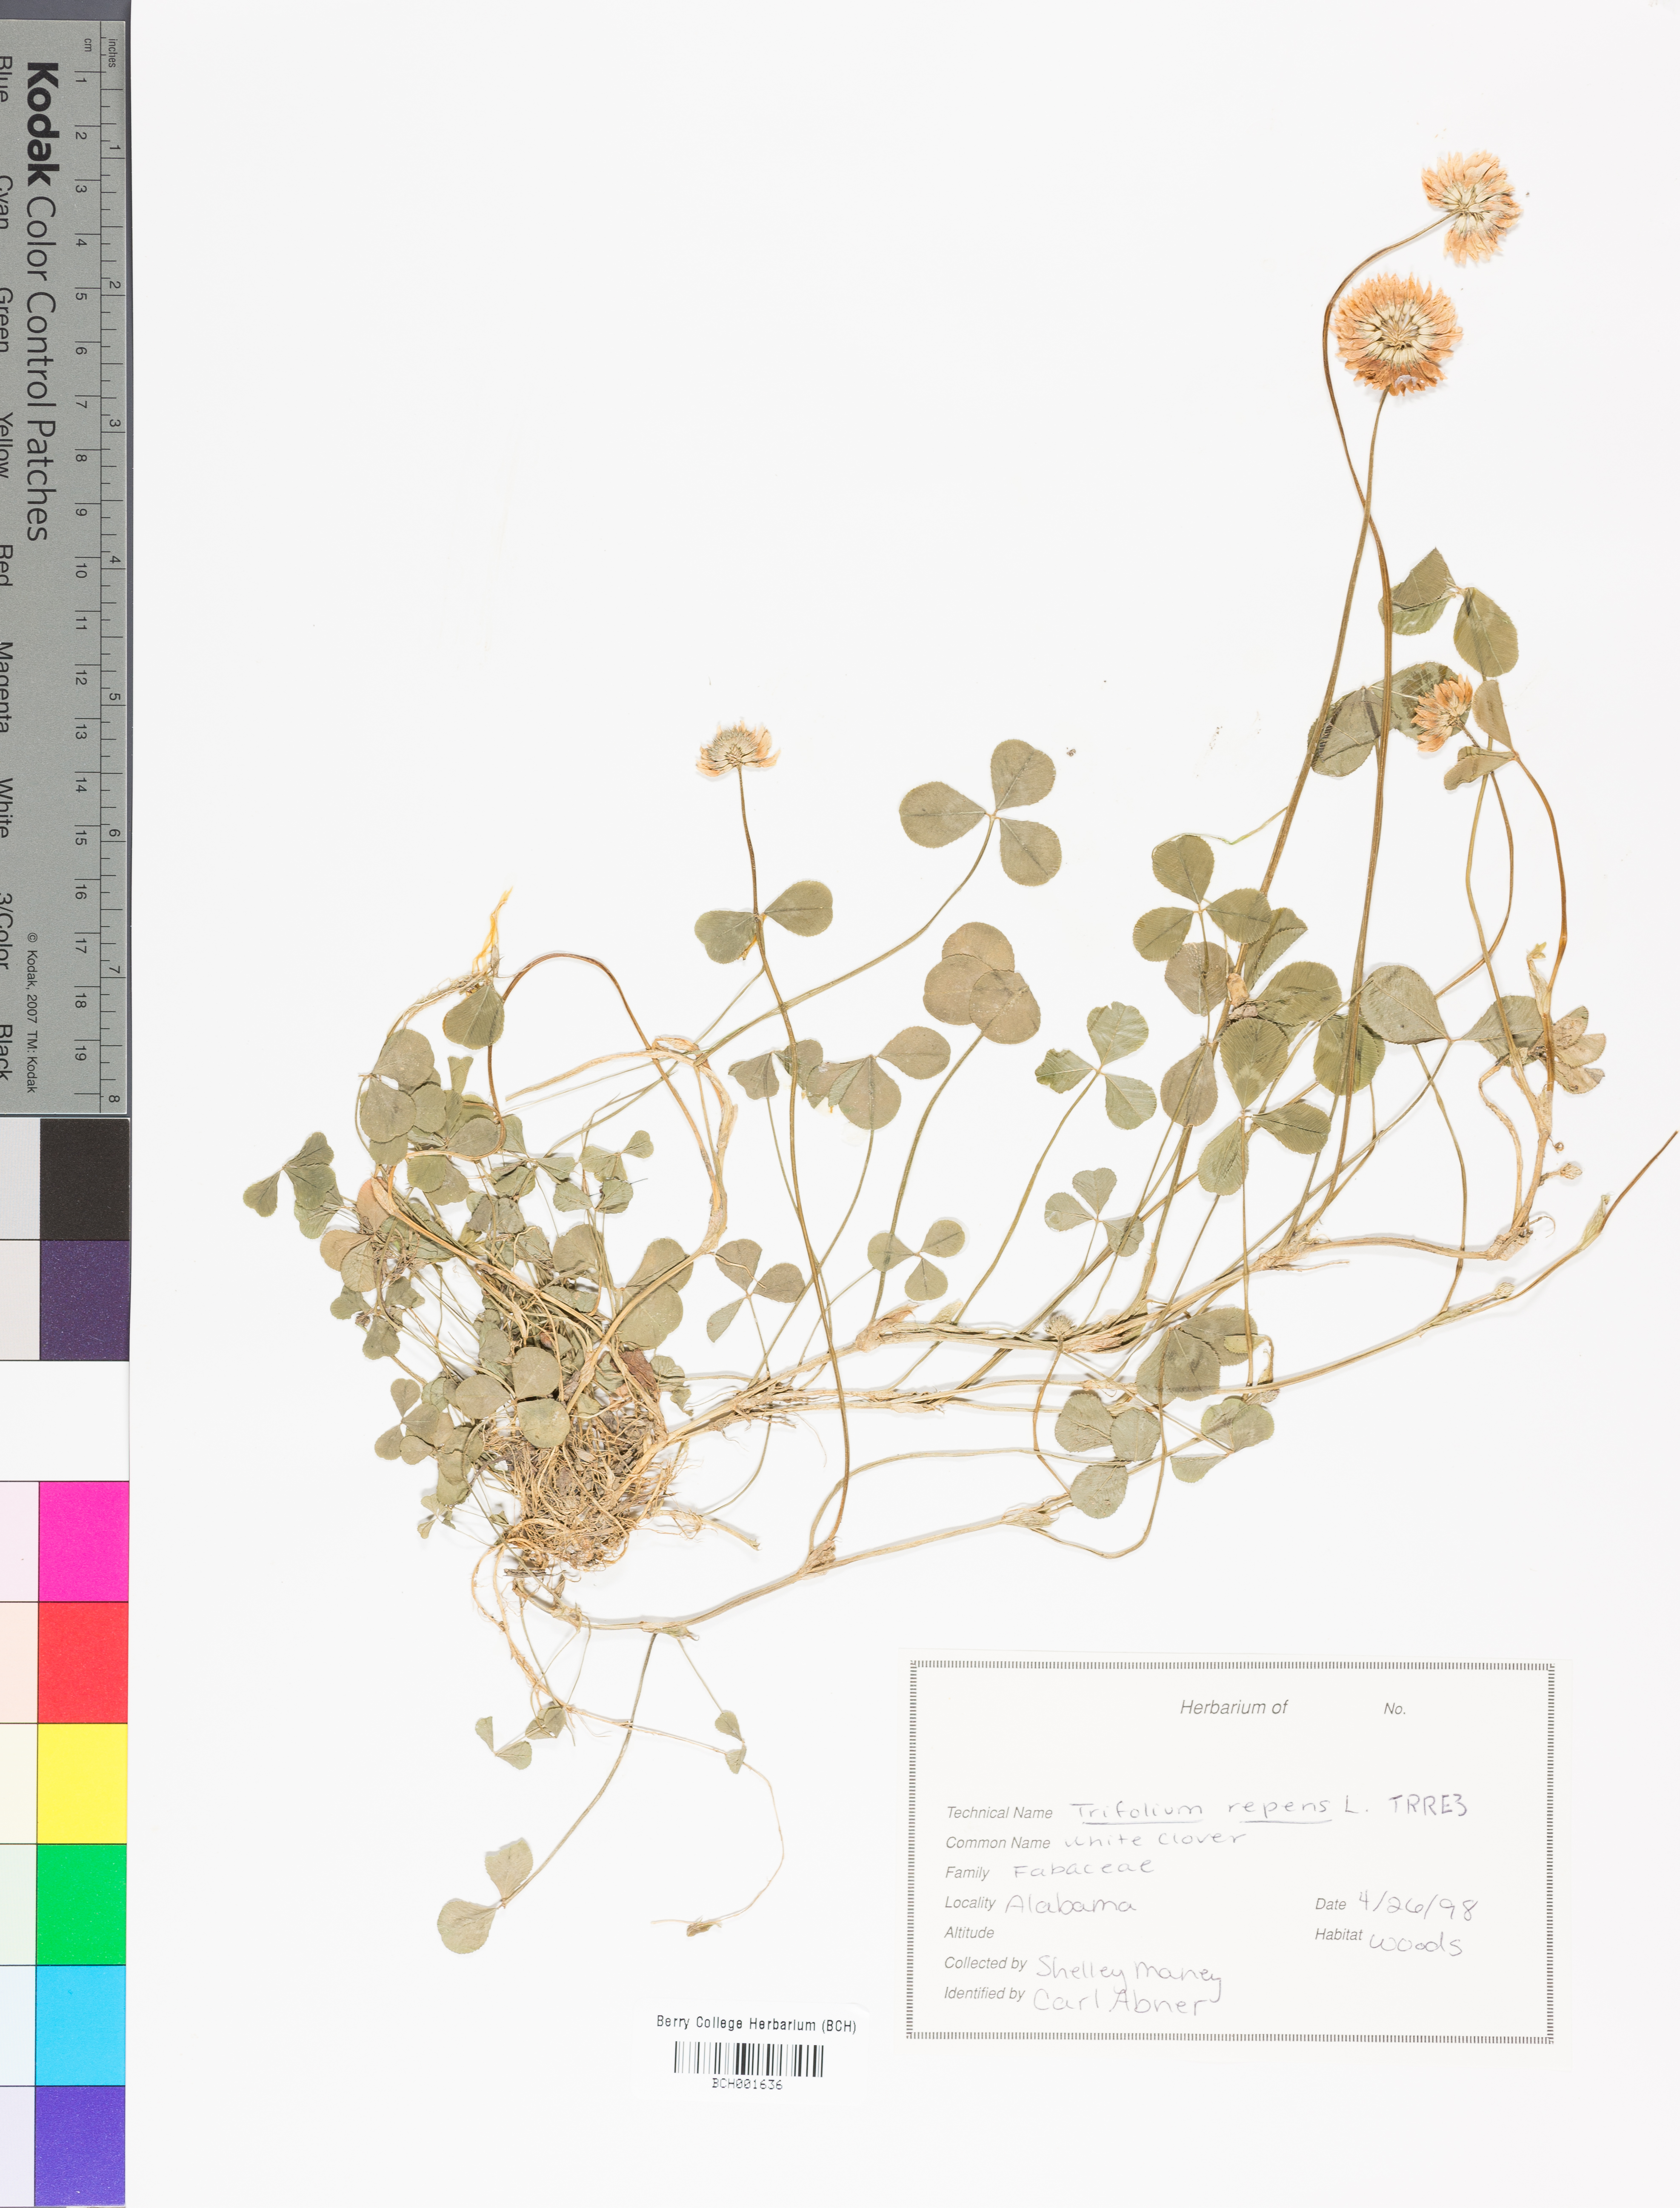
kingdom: Plantae
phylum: Tracheophyta
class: Magnoliopsida
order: Fabales
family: Fabaceae
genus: Trifolium
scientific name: Trifolium repens
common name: White clover
